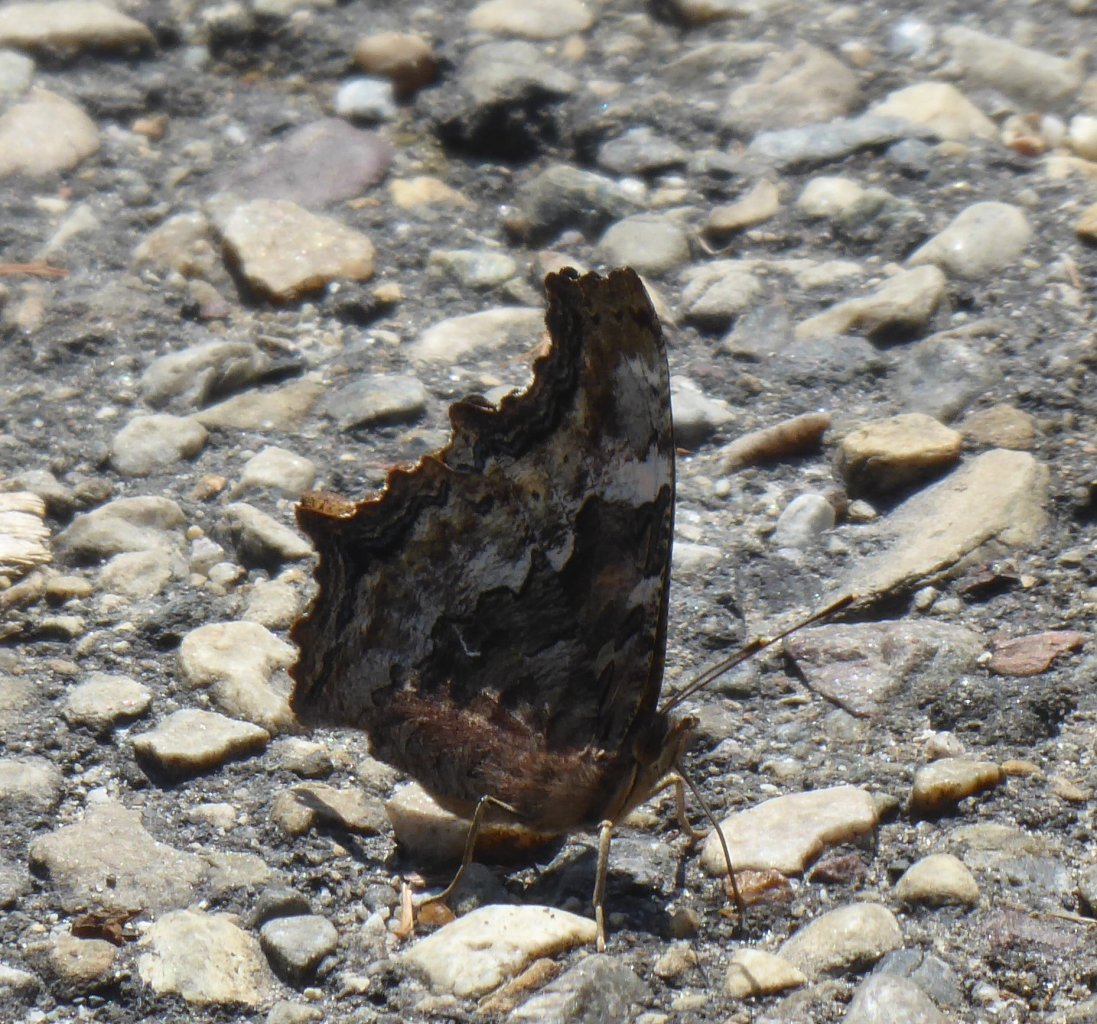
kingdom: Animalia
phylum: Arthropoda
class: Insecta
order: Lepidoptera
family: Nymphalidae
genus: Polygonia
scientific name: Polygonia vaualbum
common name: Compton Tortoiseshell
